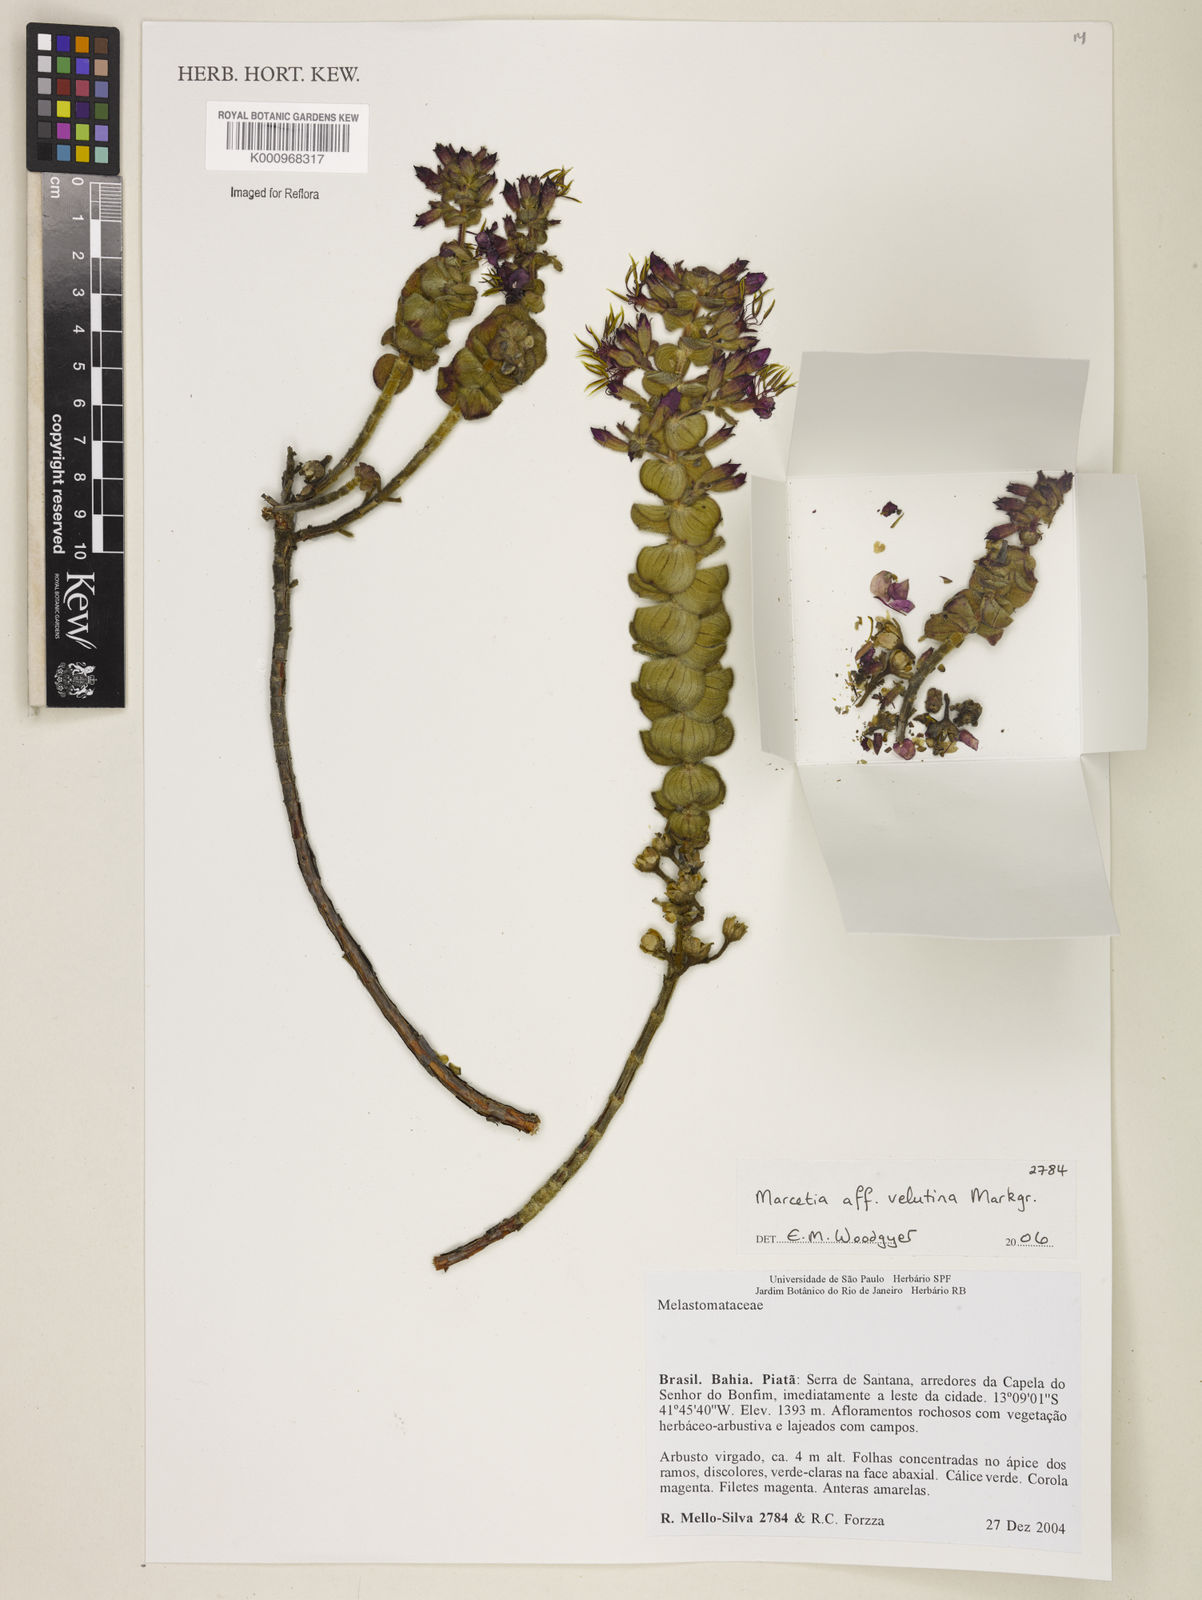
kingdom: Plantae
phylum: Tracheophyta
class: Magnoliopsida
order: Myrtales
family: Melastomataceae
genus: Marcetia
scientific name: Marcetia
